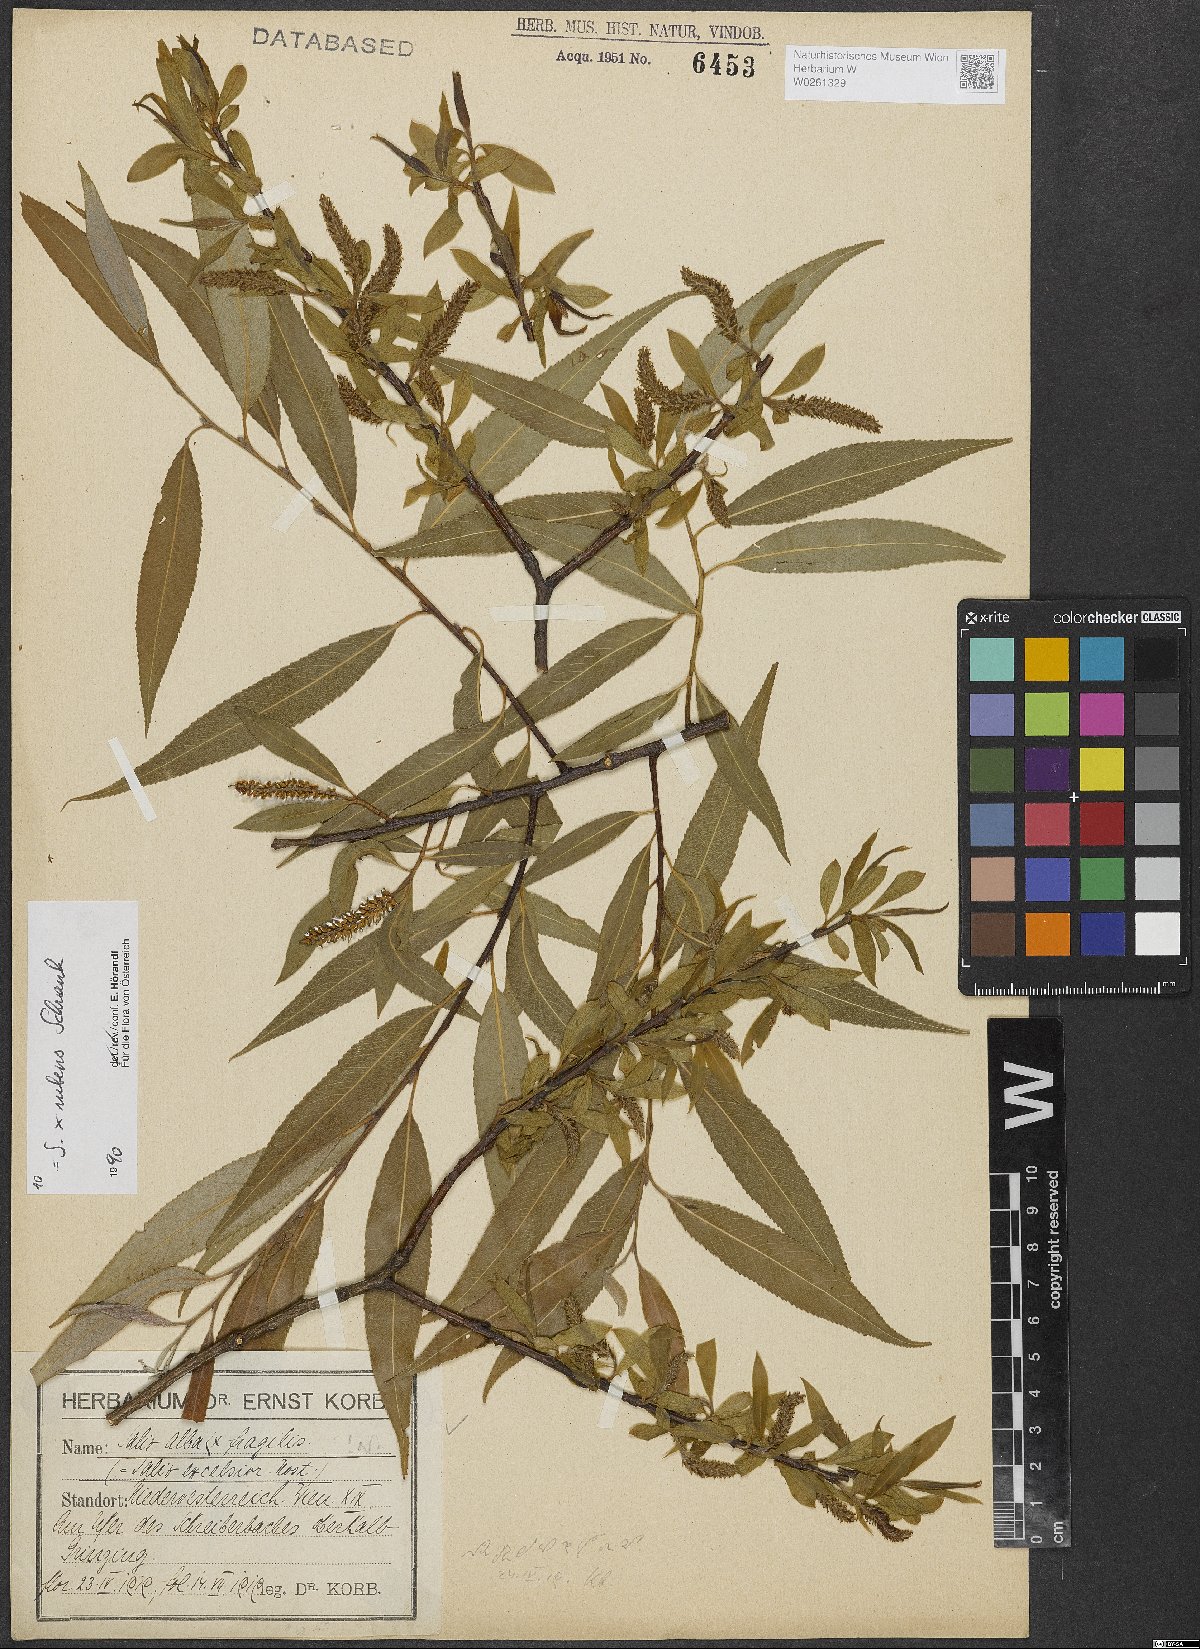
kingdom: Plantae
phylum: Tracheophyta
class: Magnoliopsida
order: Malpighiales
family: Salicaceae
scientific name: Salicaceae
